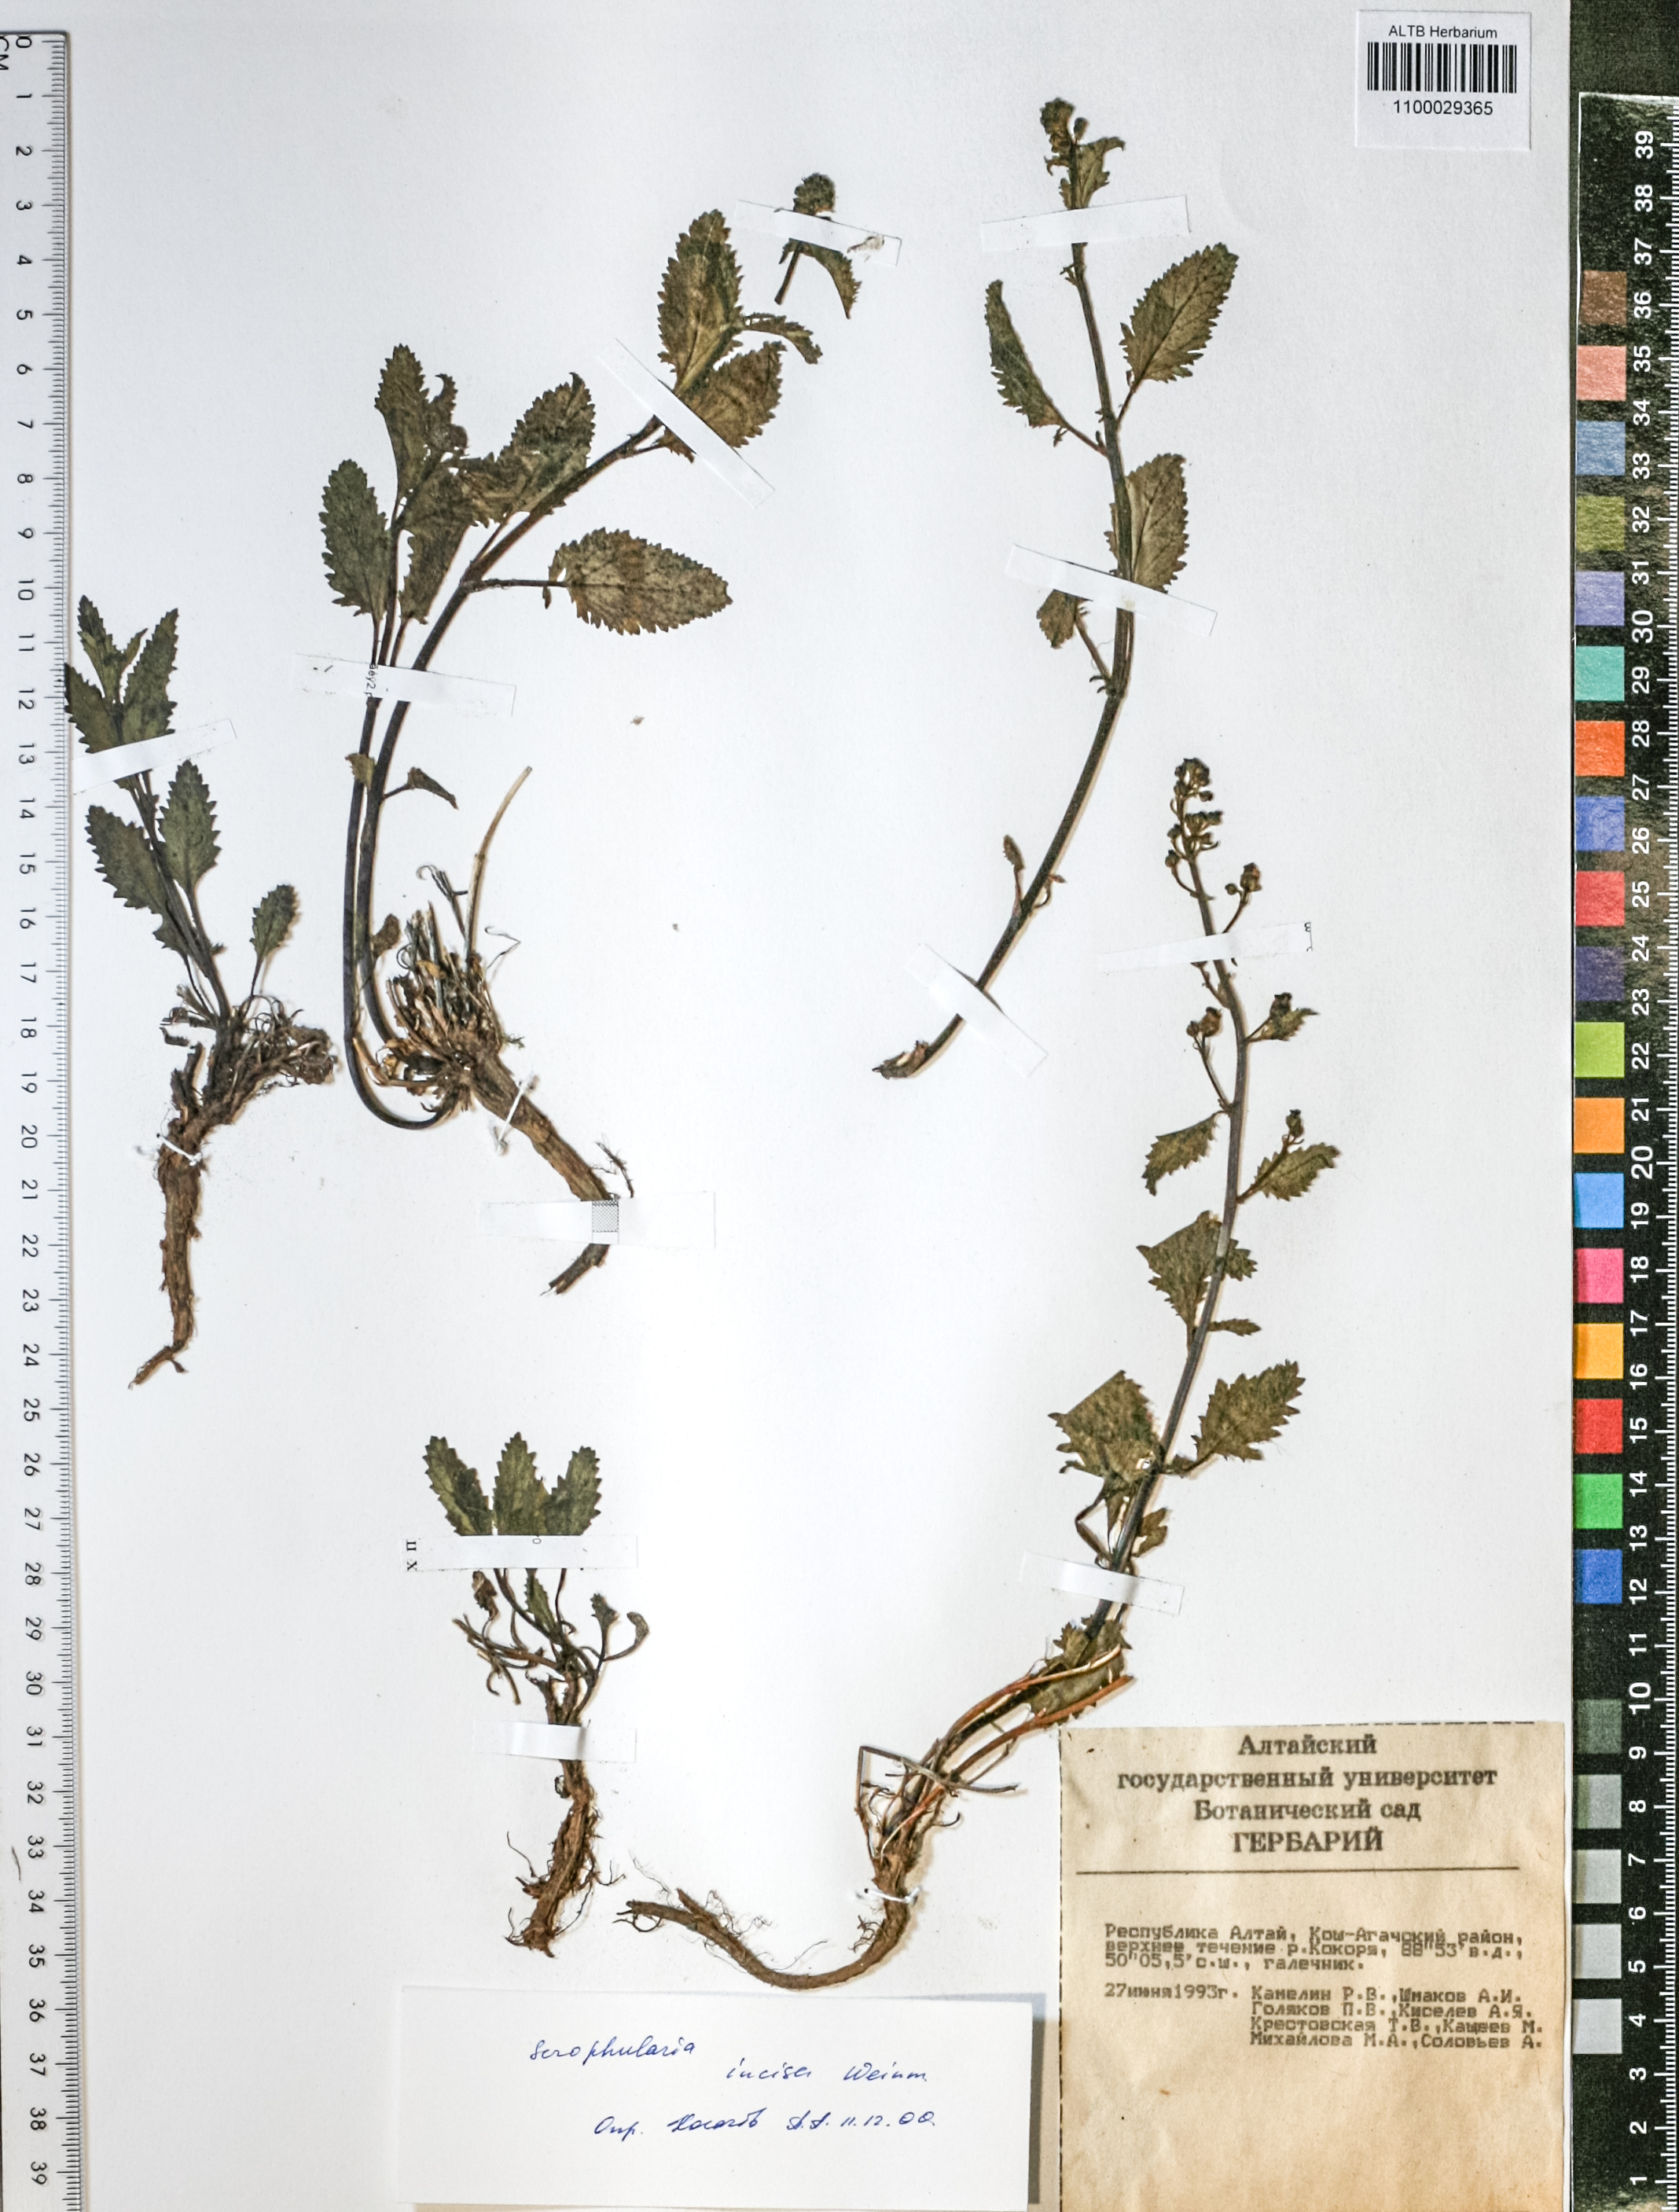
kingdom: Plantae
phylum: Tracheophyta
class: Magnoliopsida
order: Lamiales
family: Scrophulariaceae
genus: Scrophularia
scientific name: Scrophularia incisa
